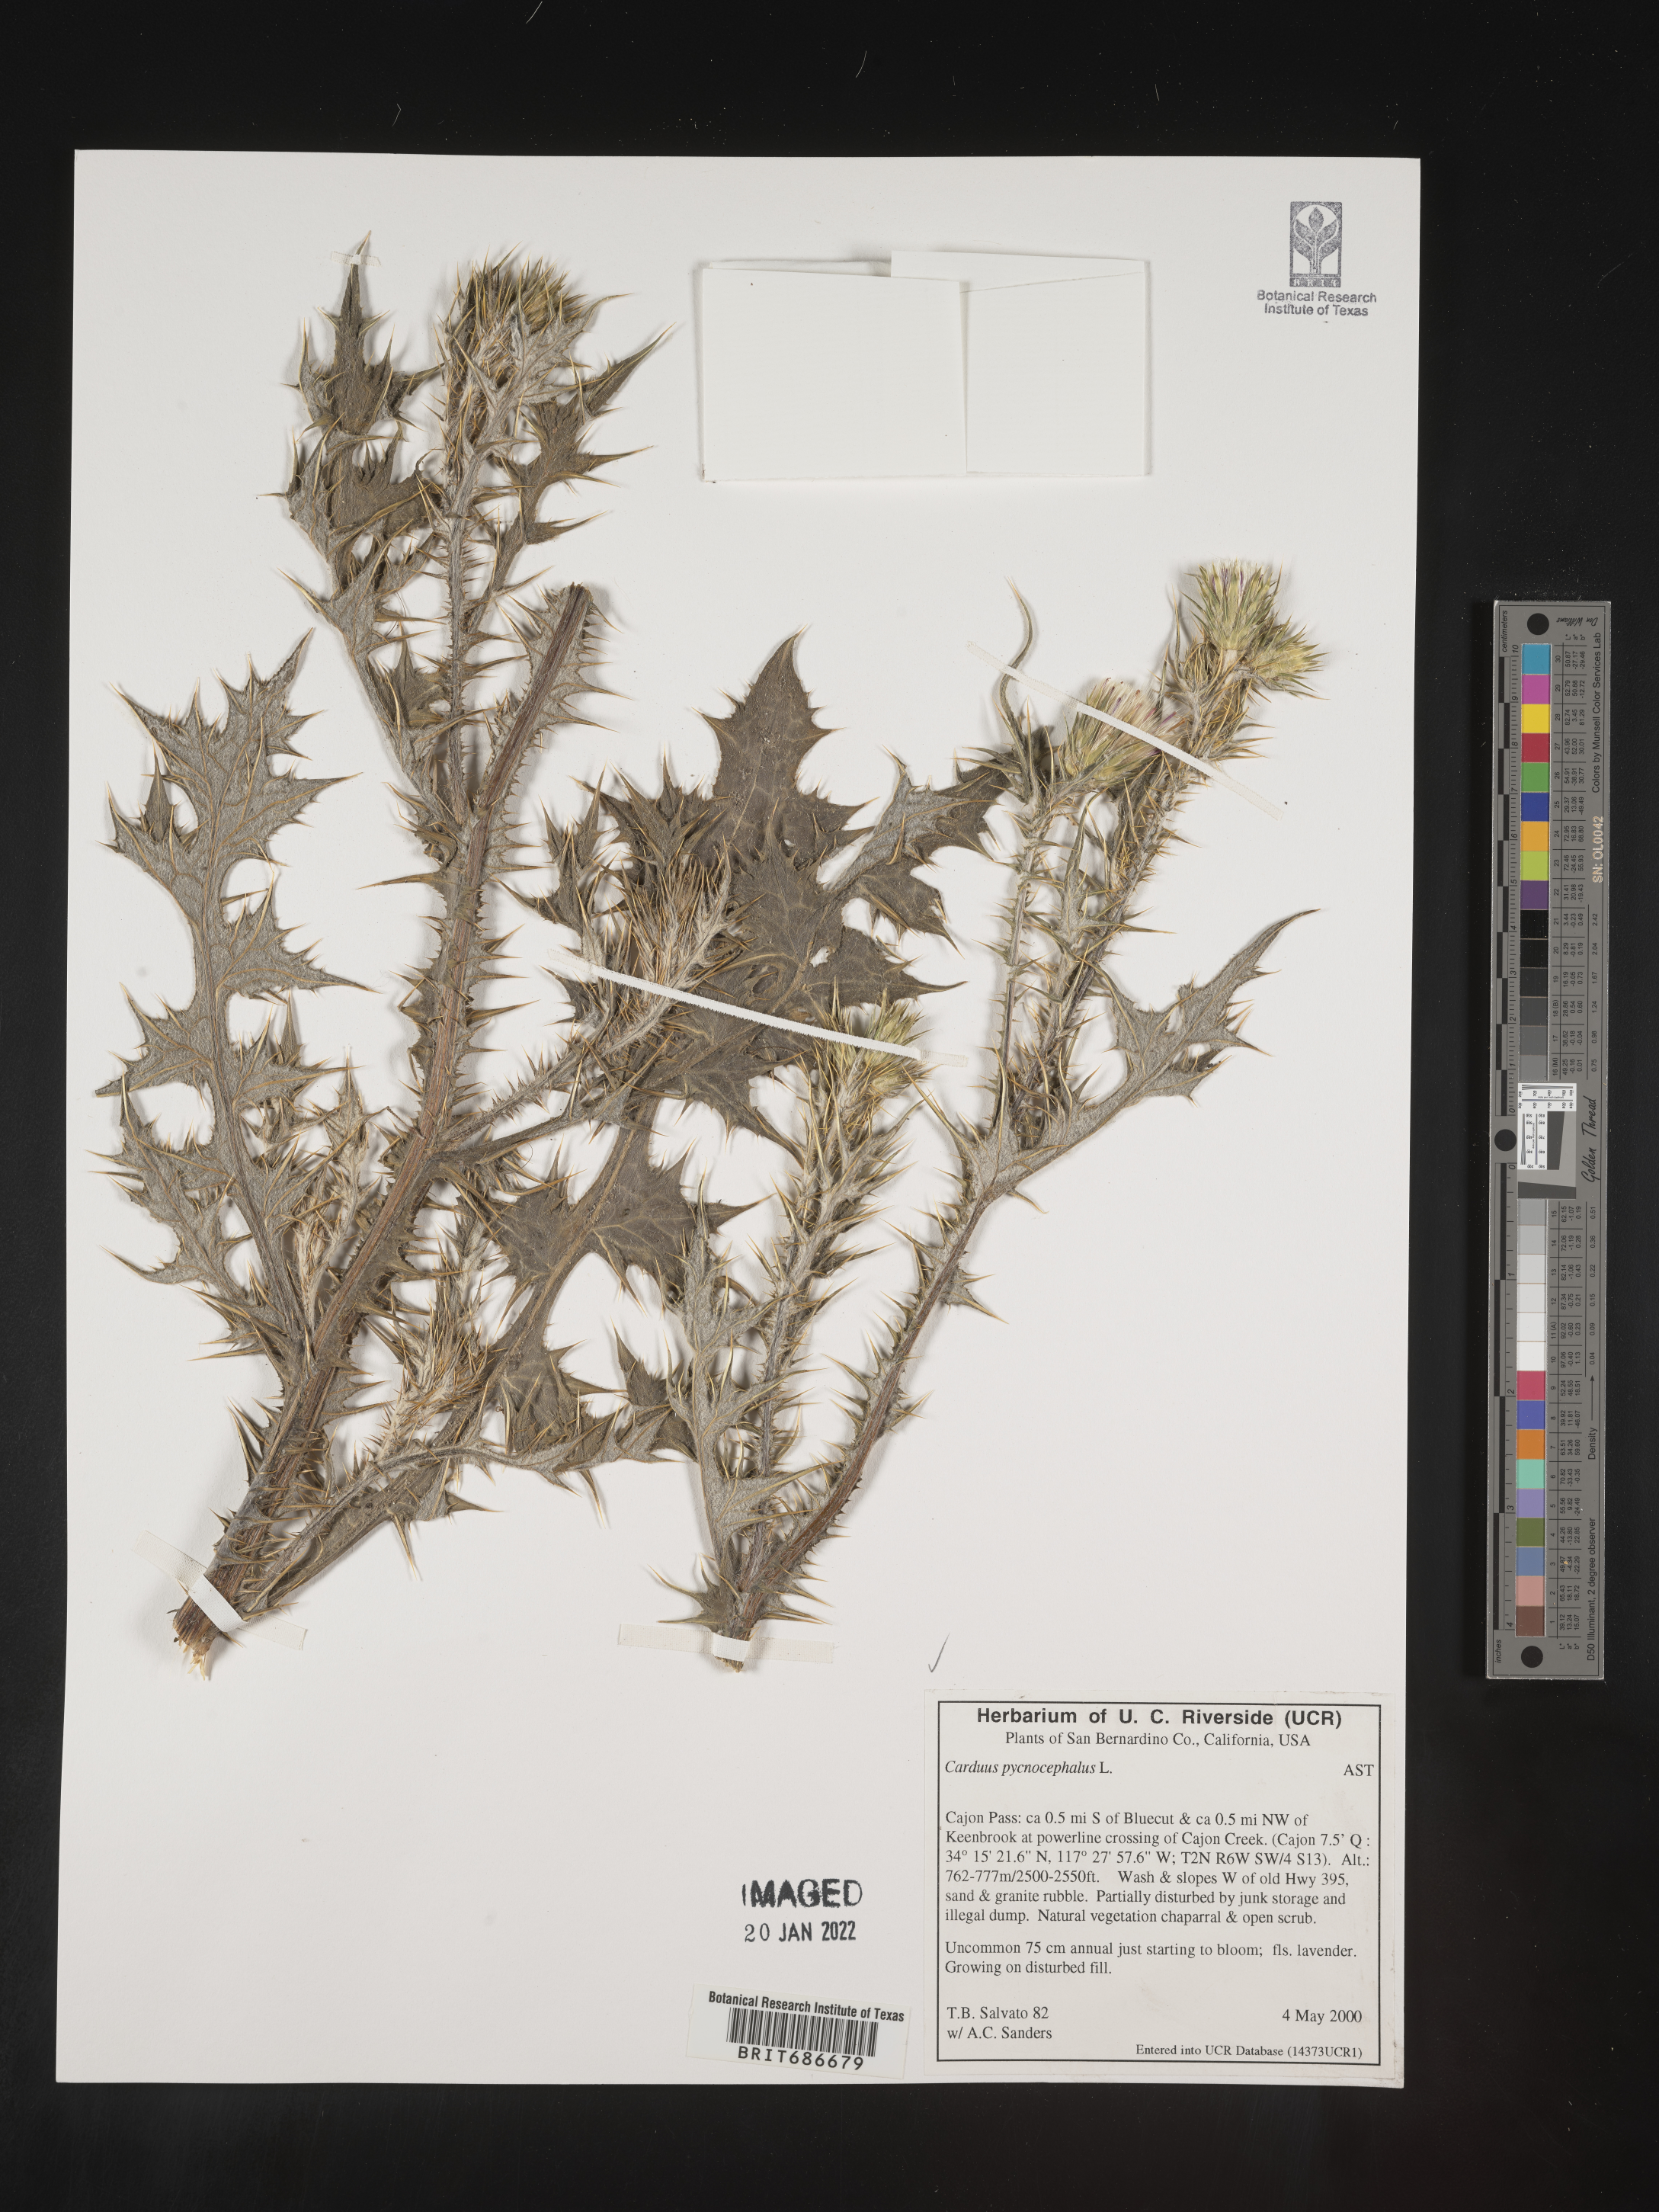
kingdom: Plantae
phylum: Tracheophyta
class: Magnoliopsida
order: Asterales
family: Asteraceae
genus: Carduus
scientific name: Carduus cephalanthus
